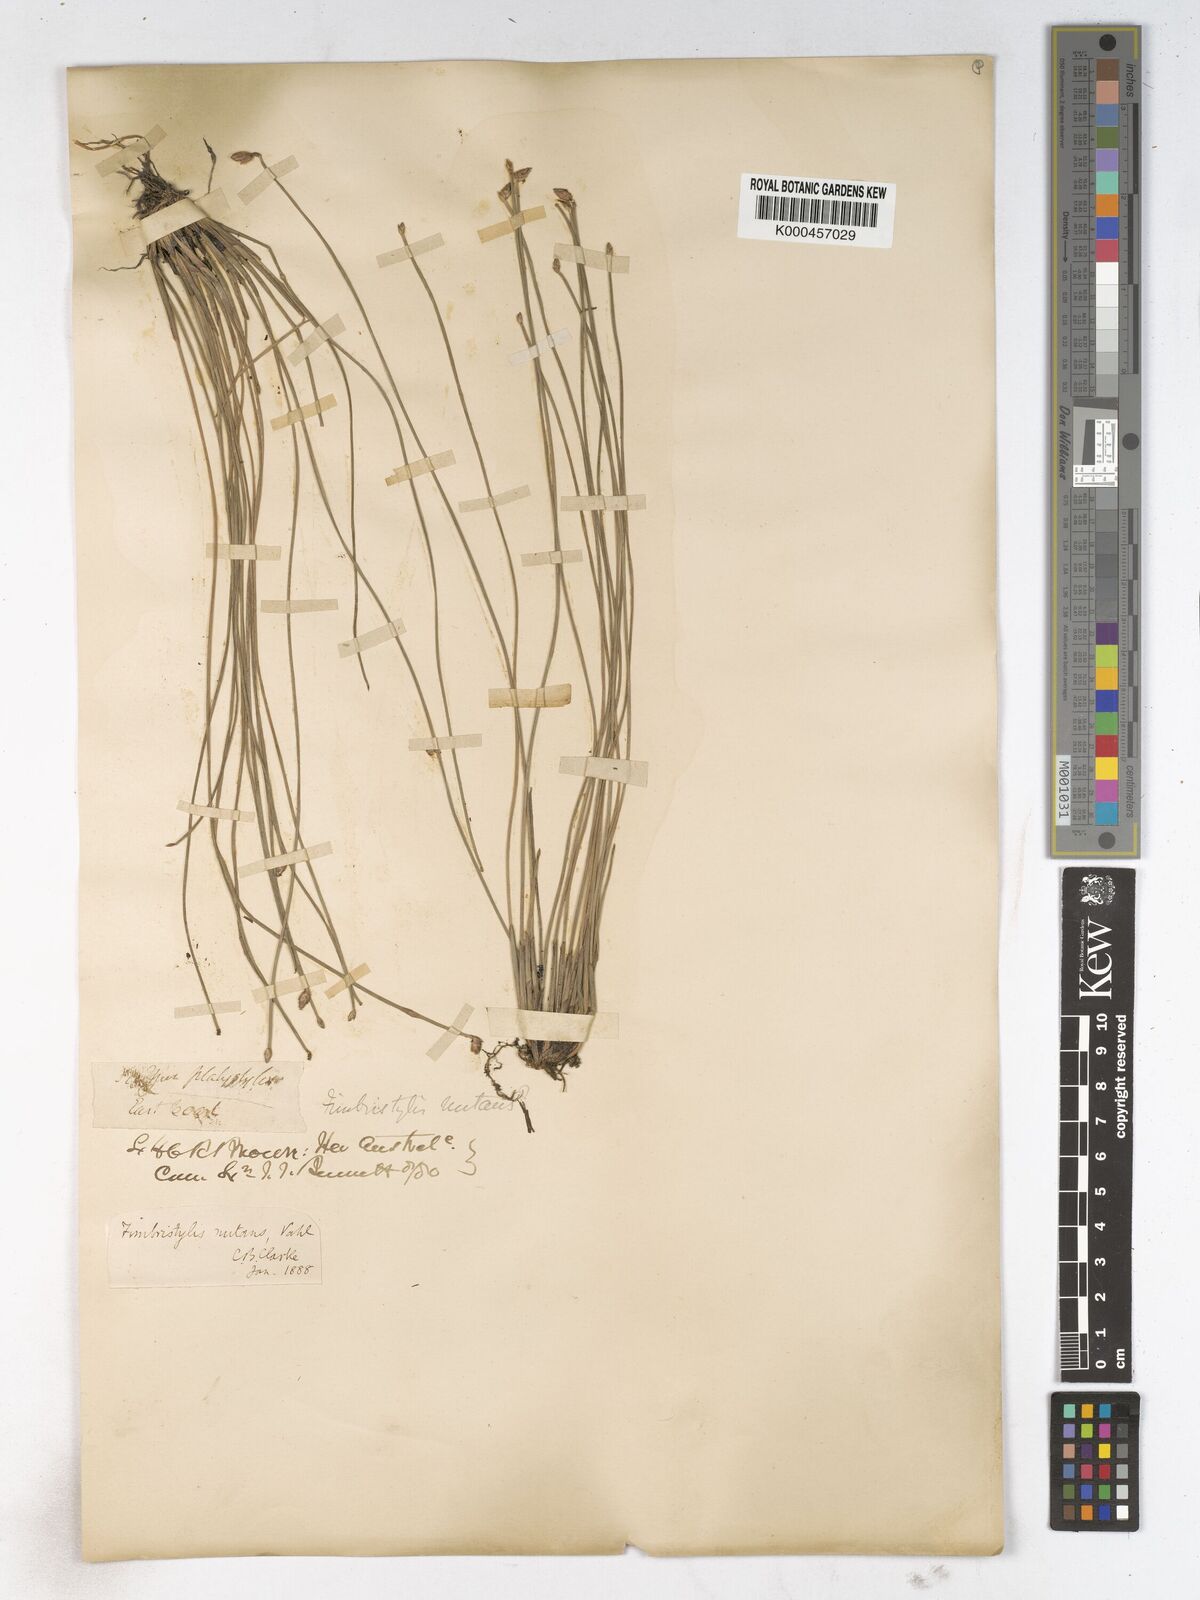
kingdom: Plantae
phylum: Tracheophyta
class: Liliopsida
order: Poales
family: Cyperaceae
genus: Fimbristylis
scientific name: Fimbristylis nutans
